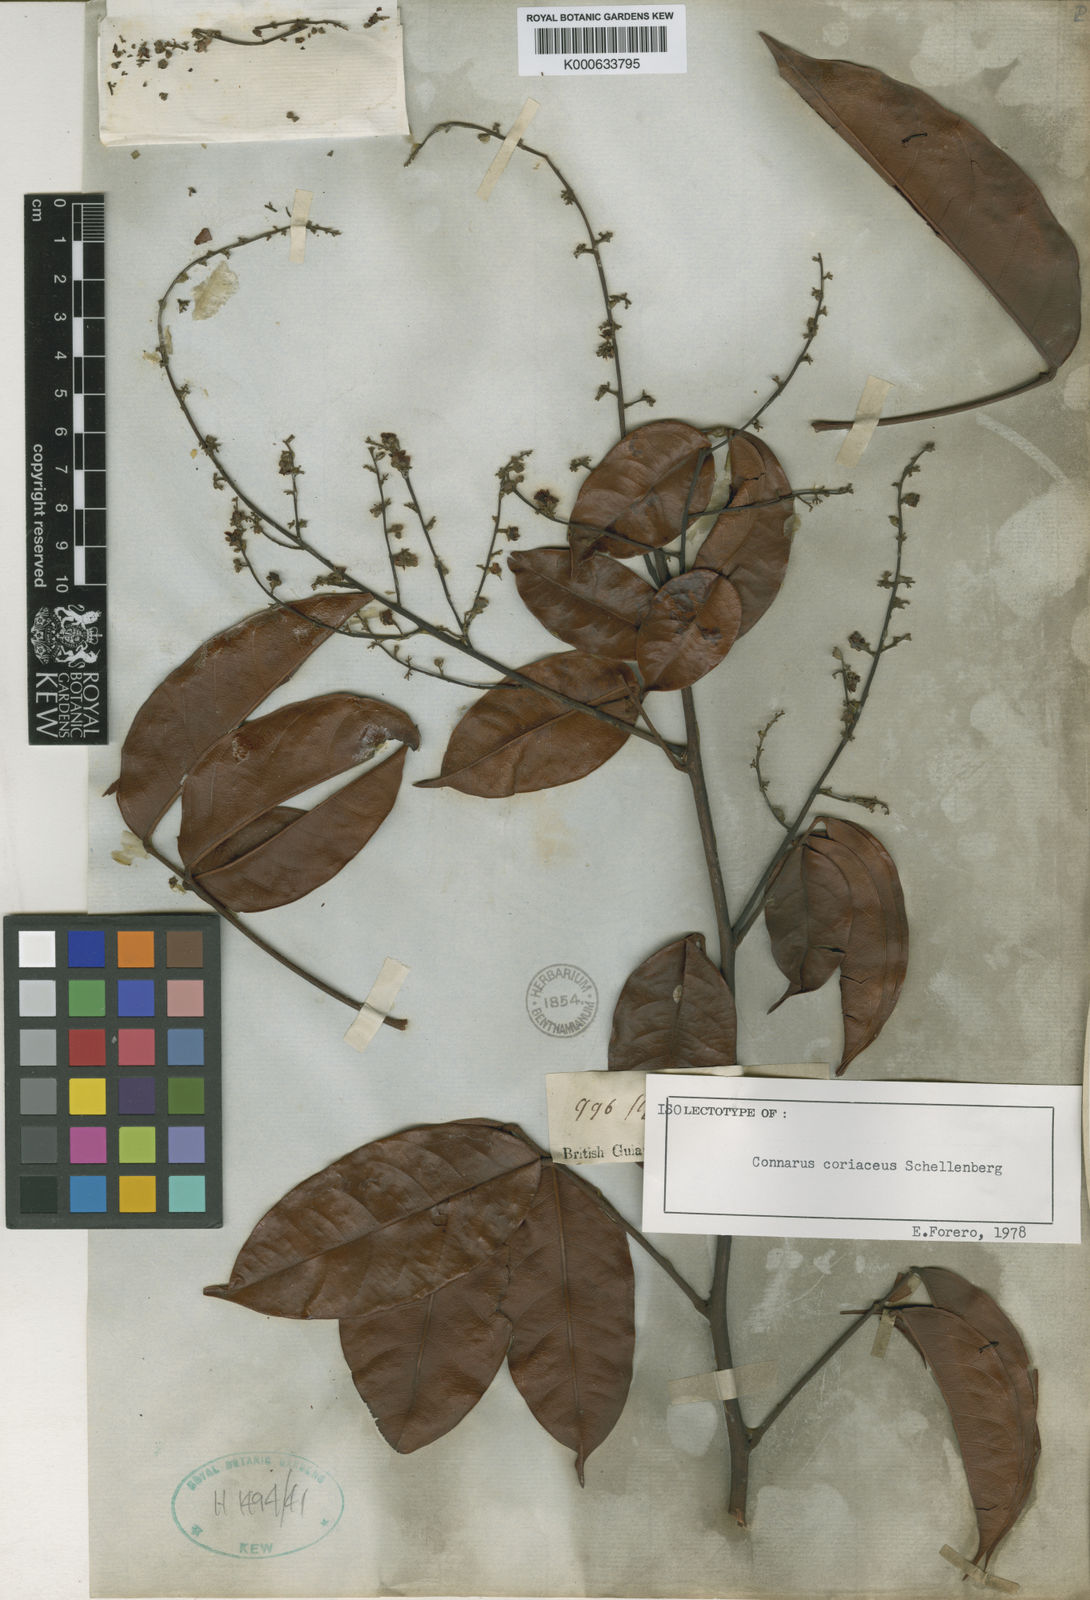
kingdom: Plantae
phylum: Tracheophyta
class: Magnoliopsida
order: Oxalidales
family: Connaraceae
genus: Connarus
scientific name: Connarus coriaceus
